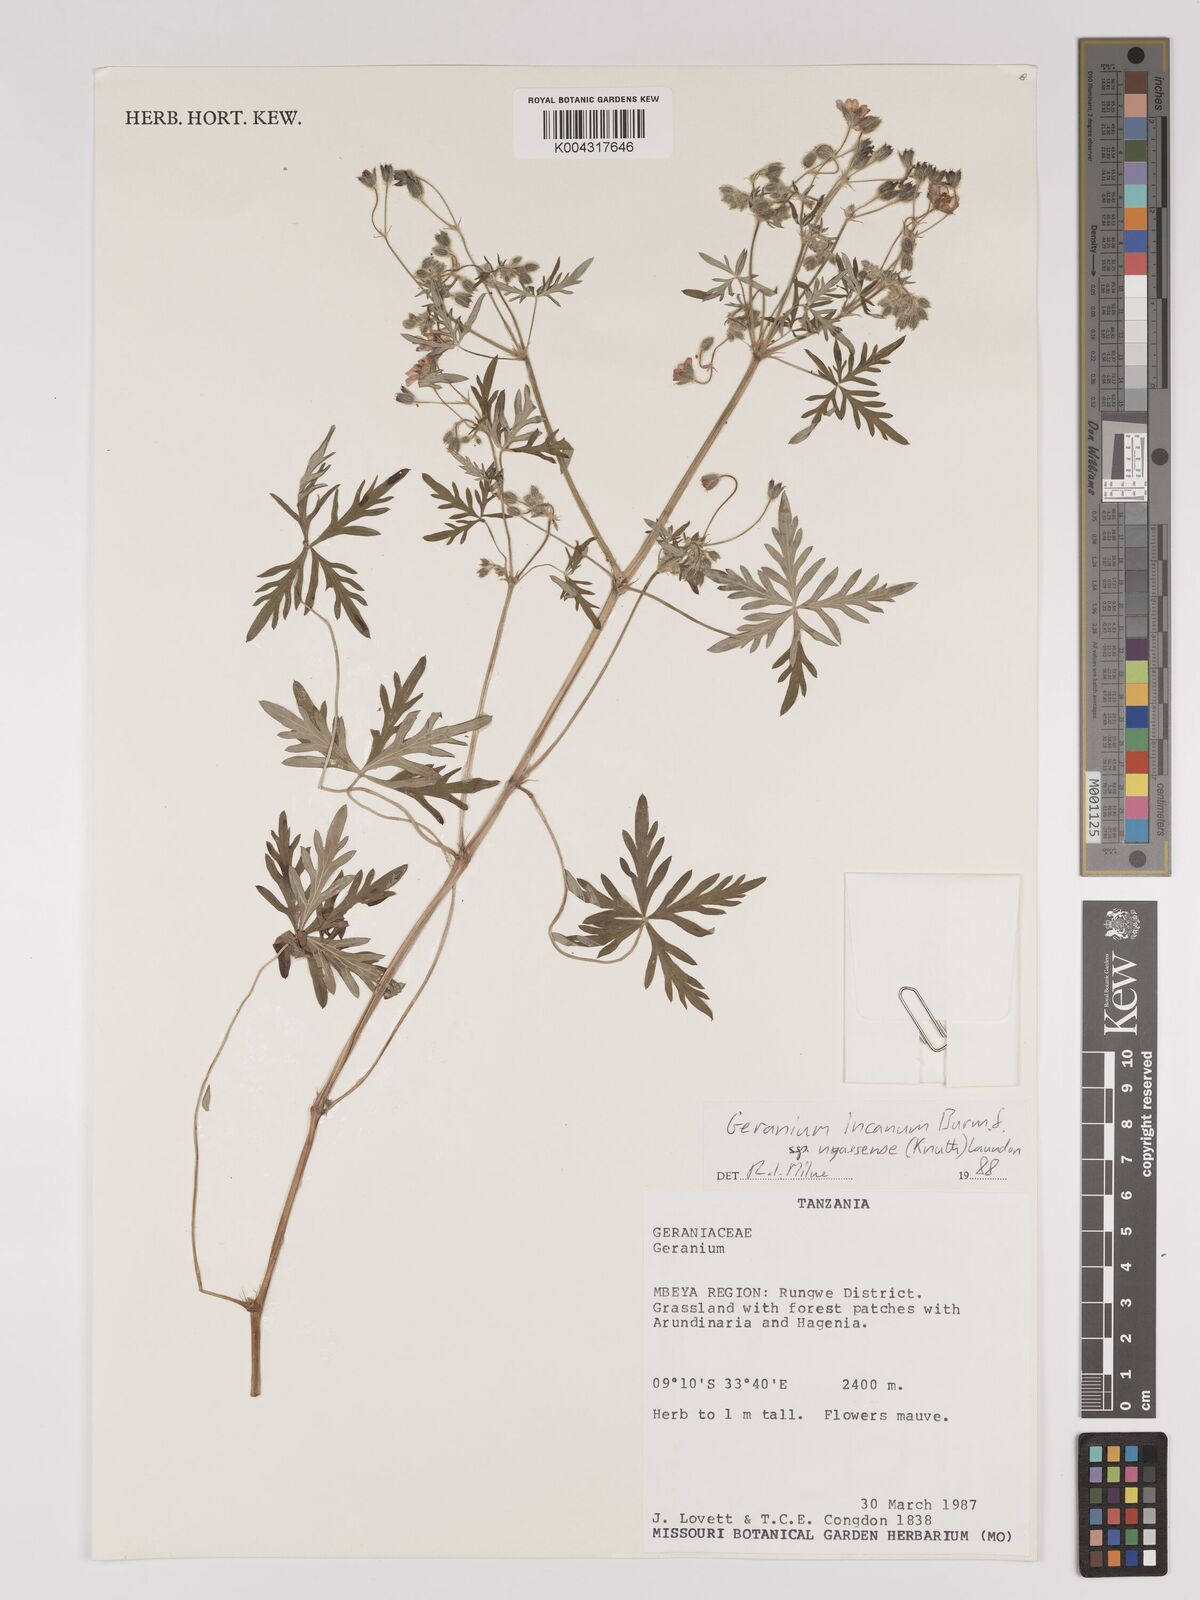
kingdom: Plantae
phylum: Tracheophyta
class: Magnoliopsida
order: Geraniales
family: Geraniaceae
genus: Geranium
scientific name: Geranium incanum
